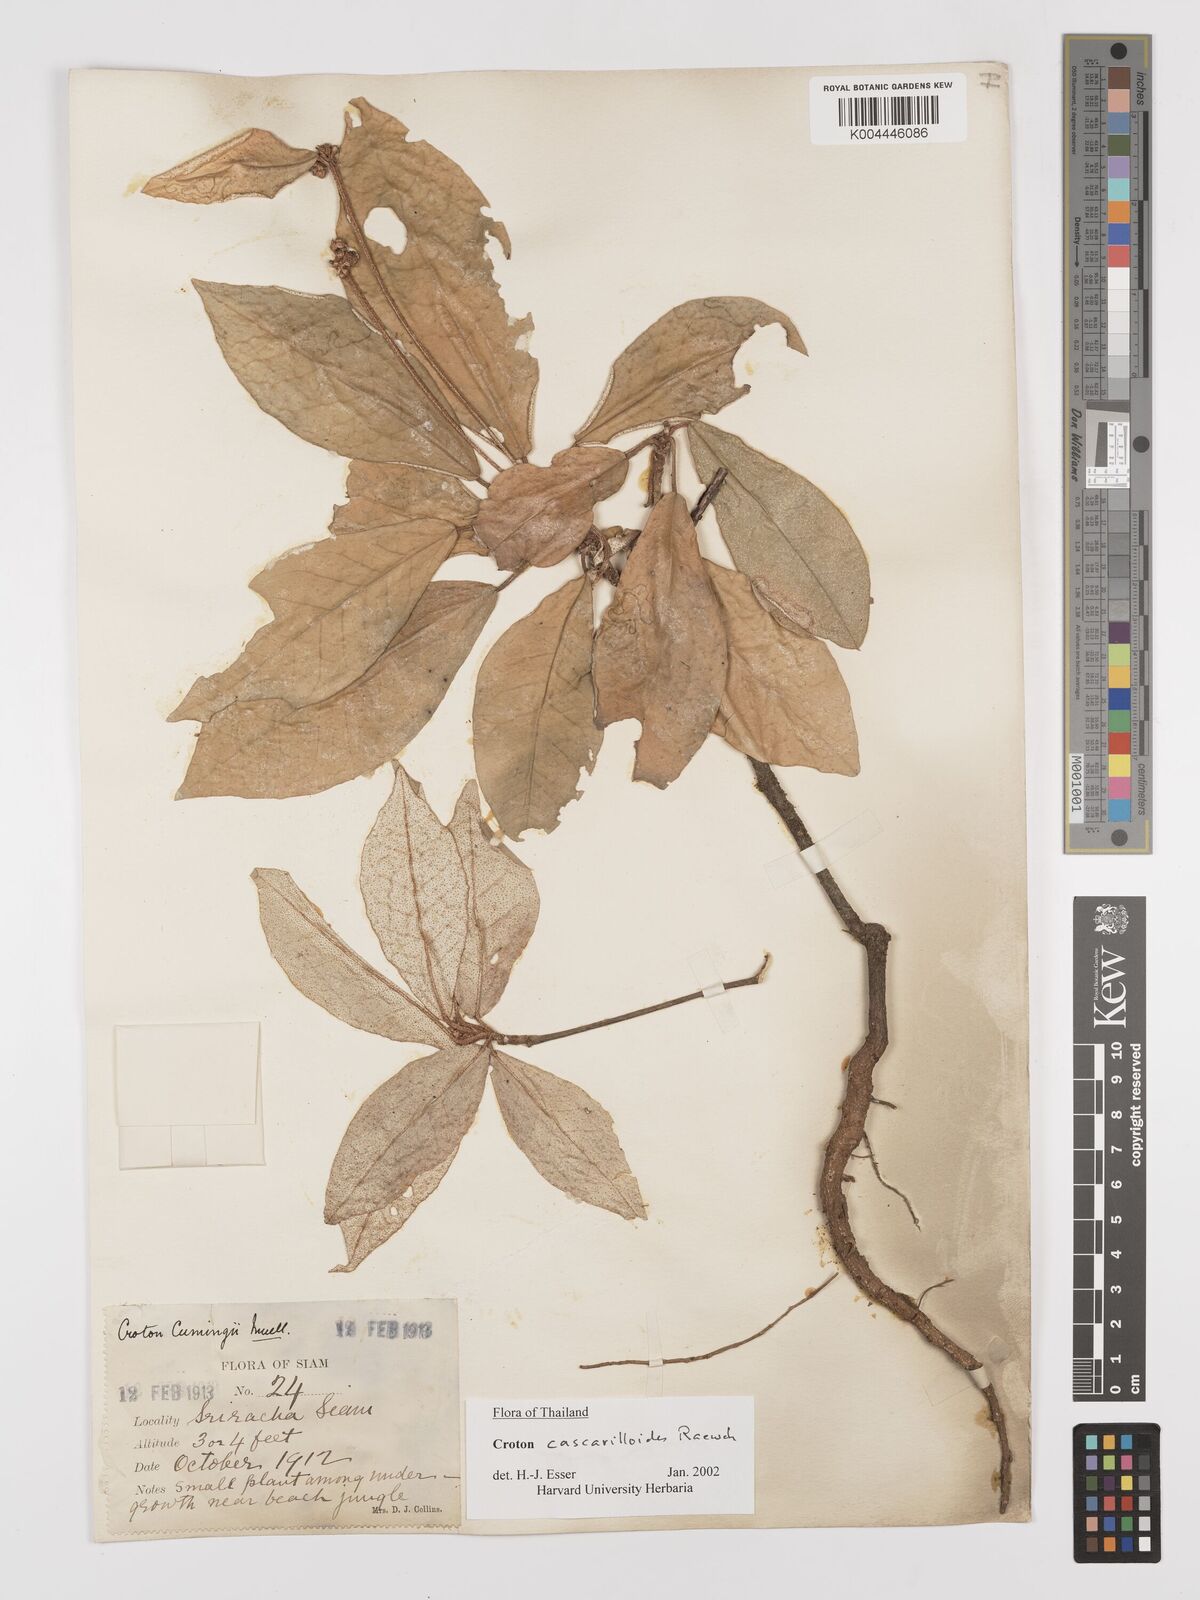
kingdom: Plantae
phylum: Tracheophyta
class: Magnoliopsida
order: Malpighiales
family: Euphorbiaceae
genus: Croton
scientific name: Croton cascarilloides
